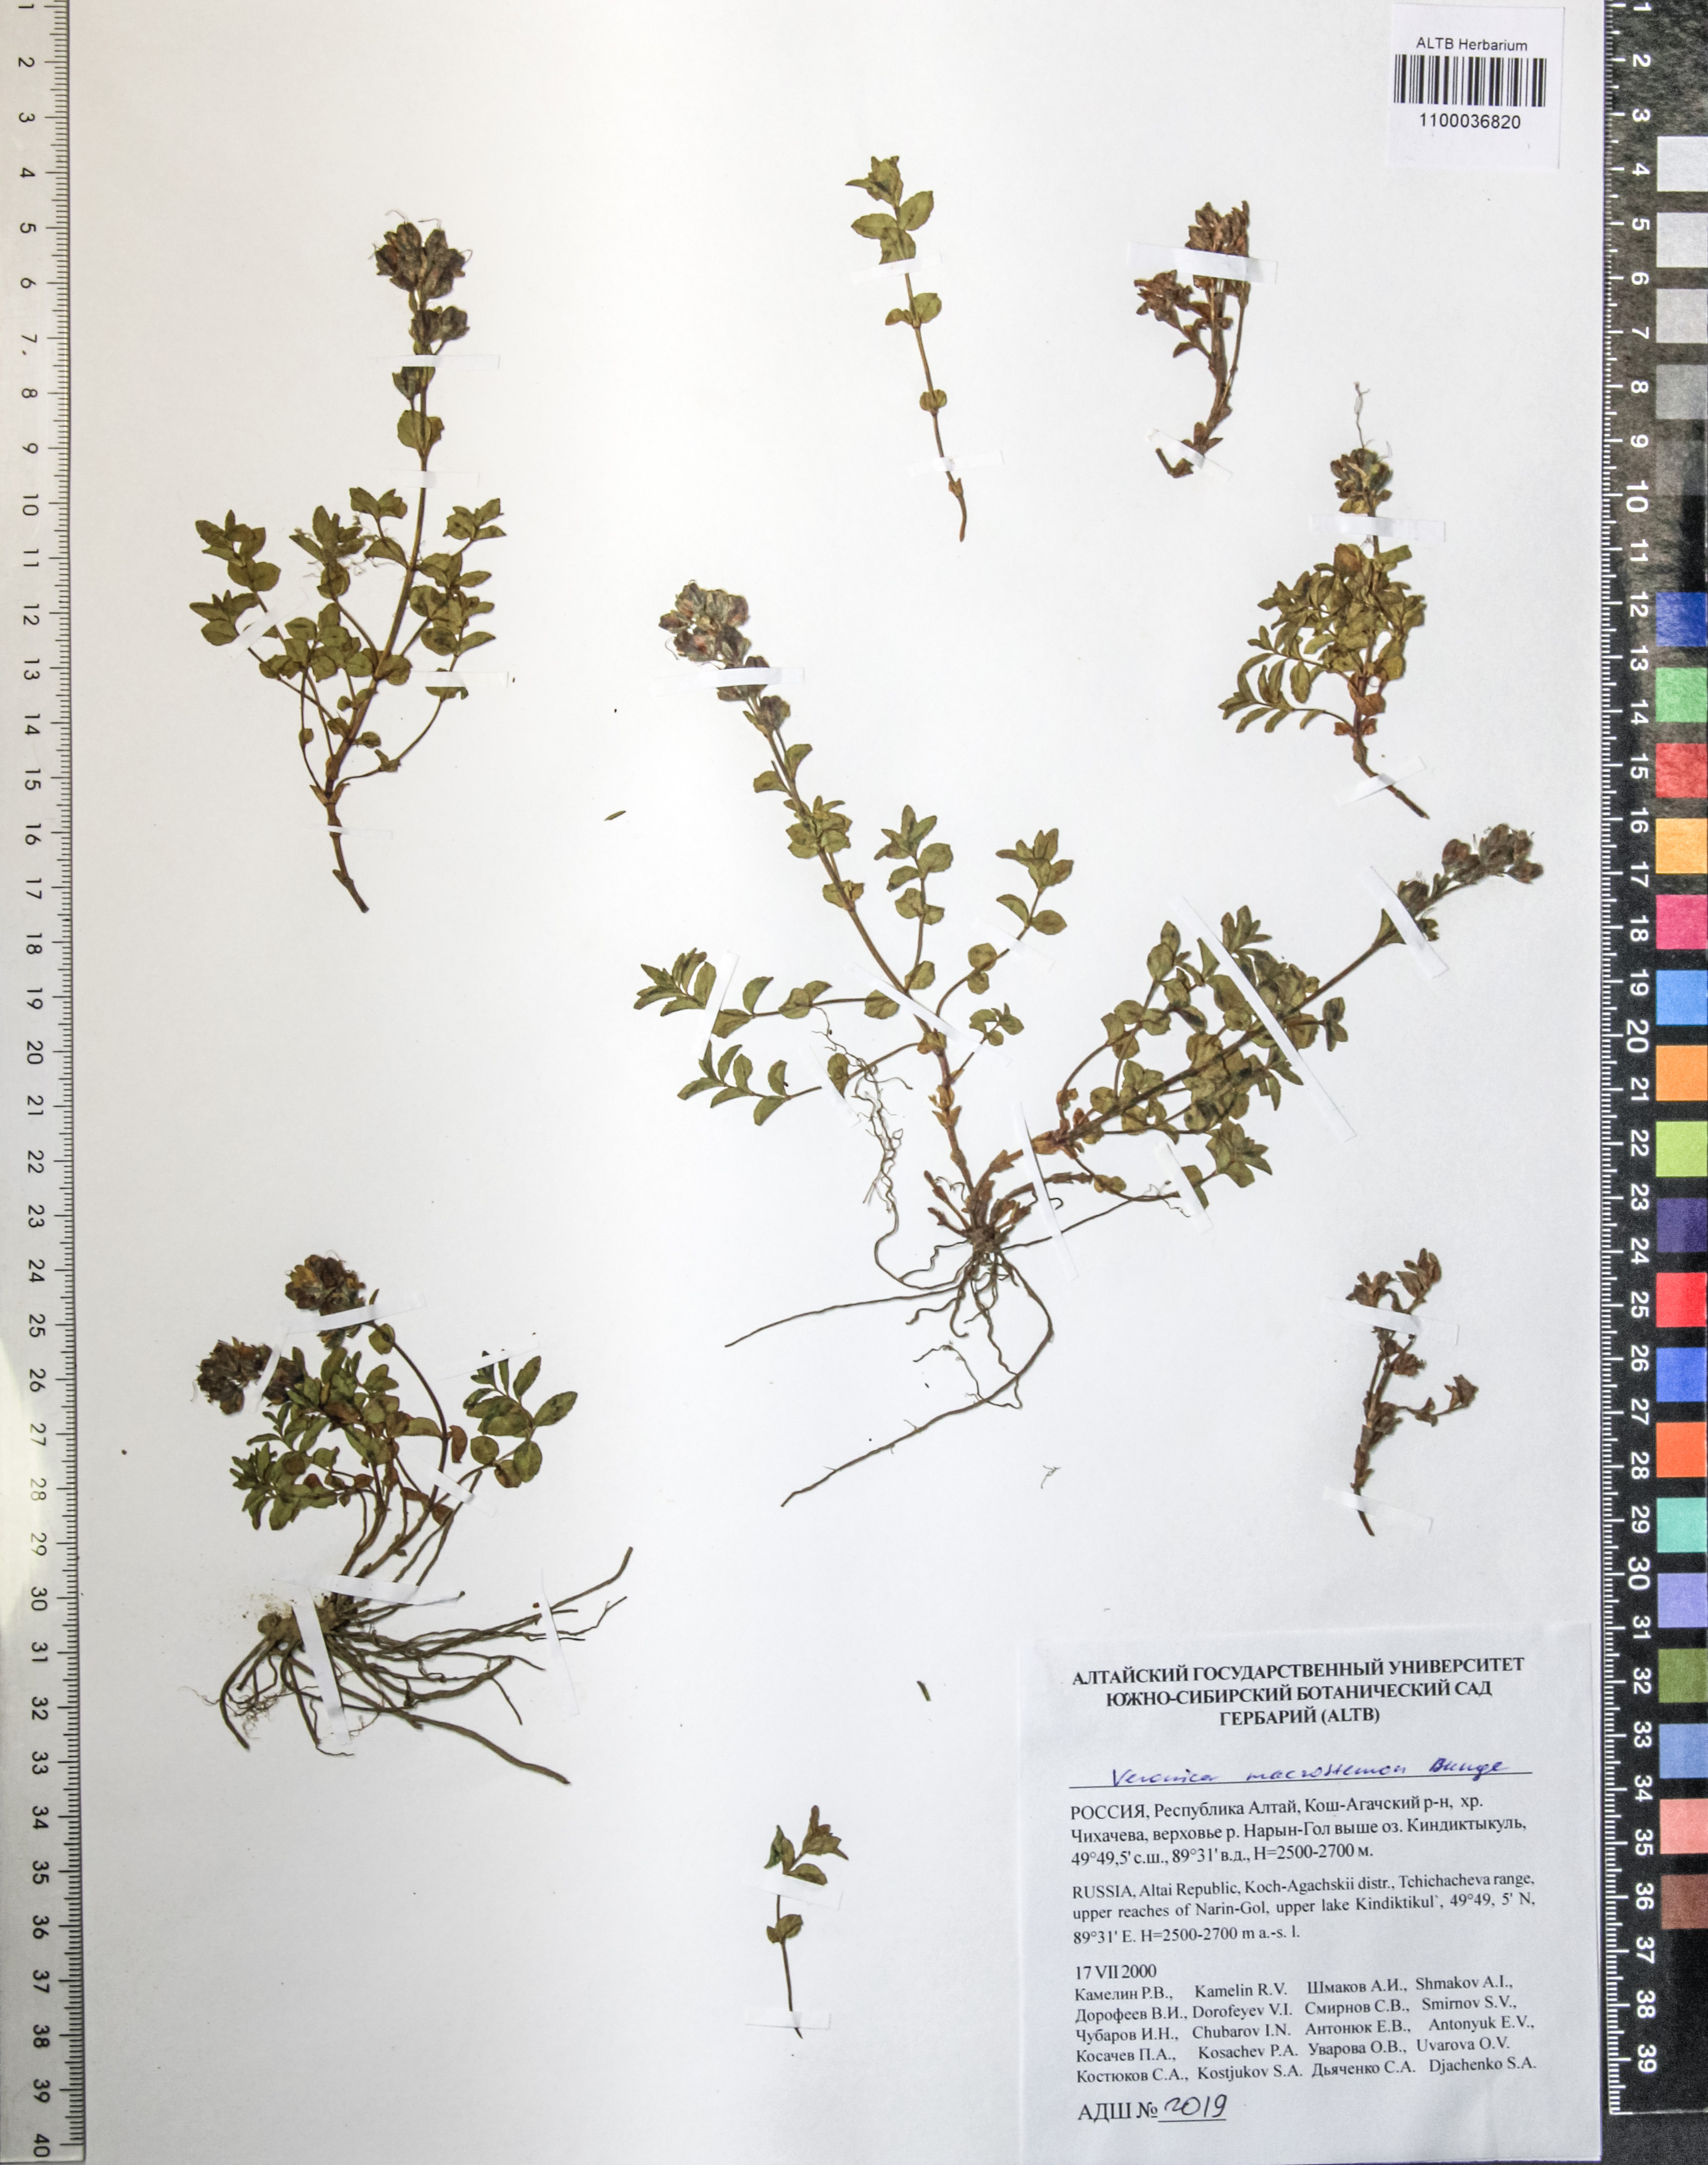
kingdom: Plantae
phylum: Tracheophyta
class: Magnoliopsida
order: Lamiales
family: Plantaginaceae
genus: Veronica
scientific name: Veronica macrostemon
